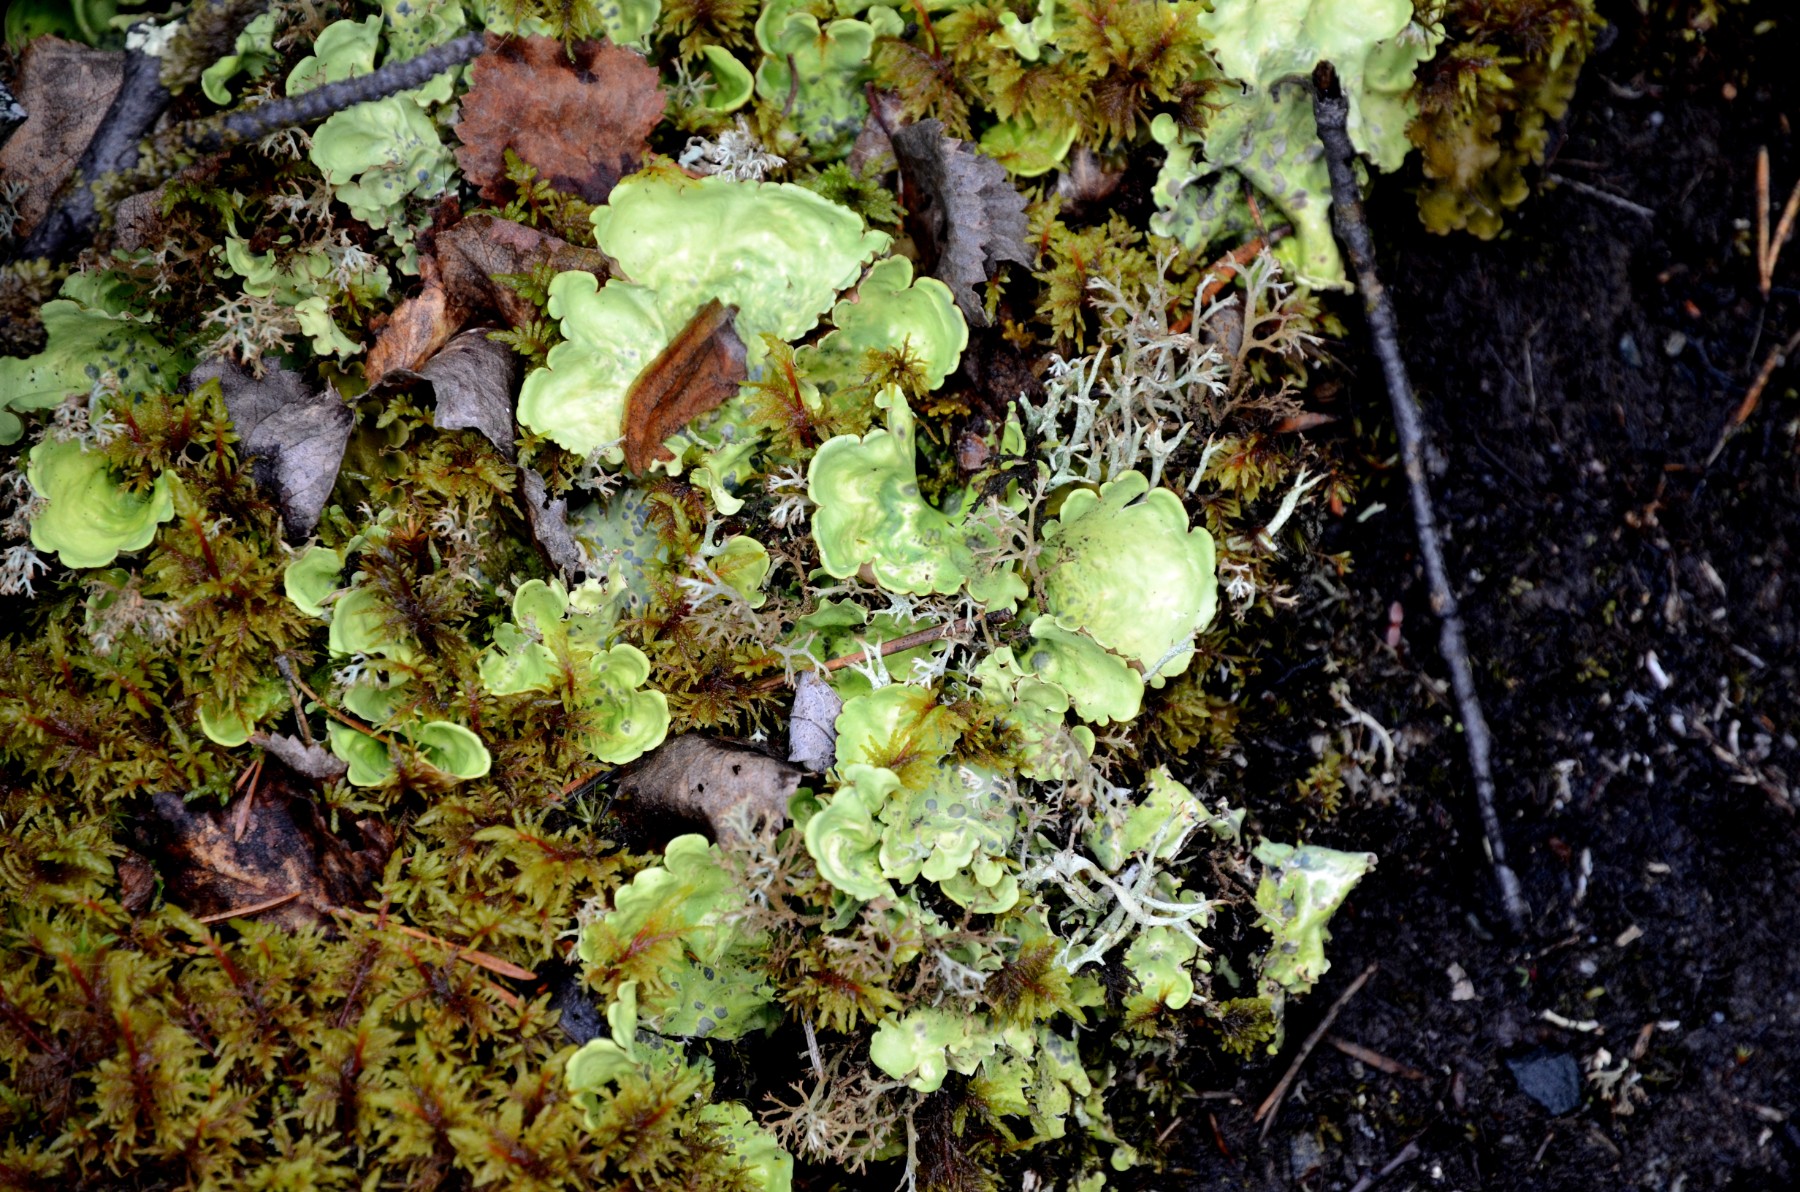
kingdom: Fungi
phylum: Ascomycota
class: Lecanoromycetes
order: Peltigerales
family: Nephromataceae
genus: Nephroma
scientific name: Nephroma arcticum
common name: stor nyrelav
